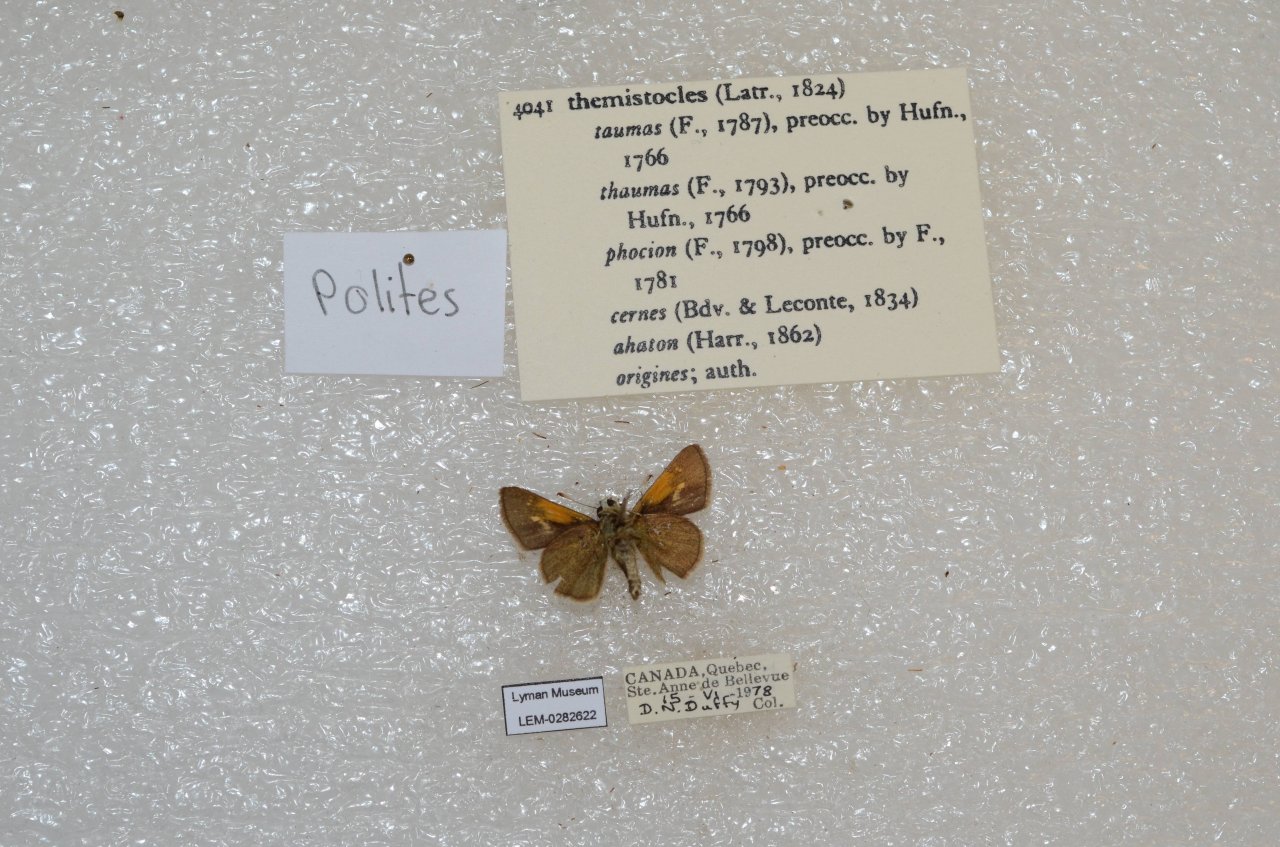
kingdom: Animalia
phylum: Arthropoda
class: Insecta
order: Lepidoptera
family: Hesperiidae
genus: Polites
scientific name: Polites themistocles
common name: Tawny-edged Skipper
